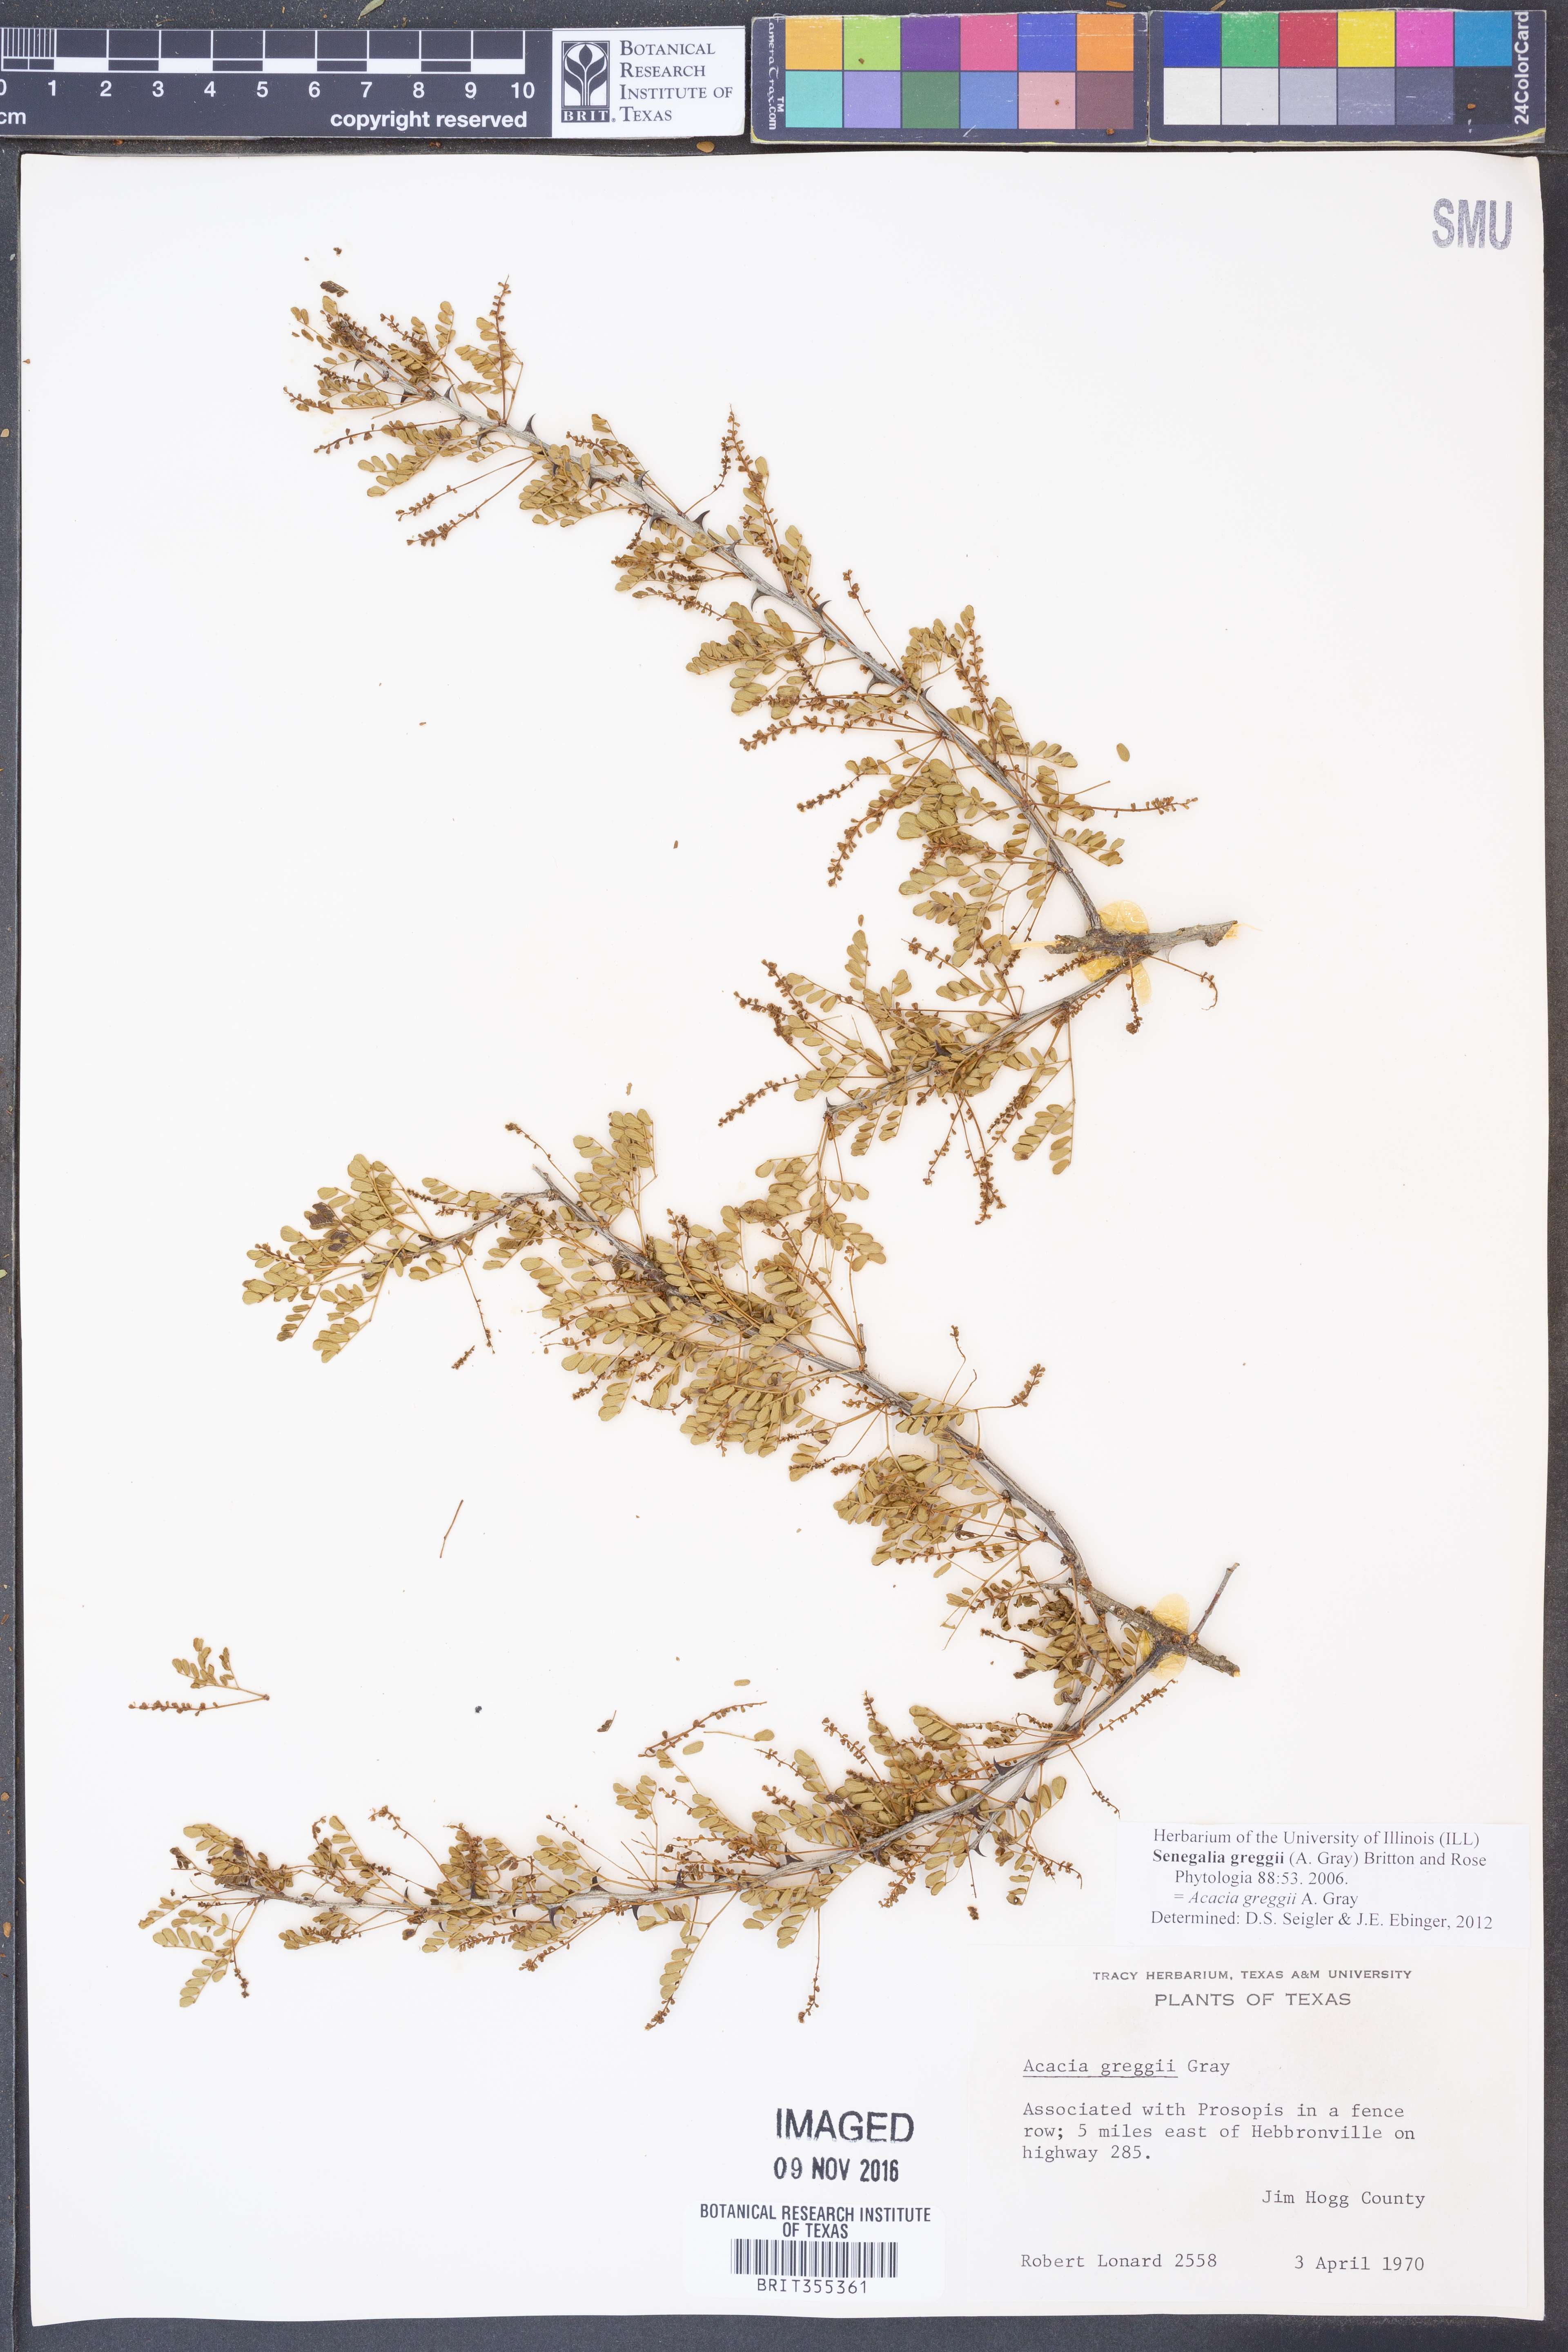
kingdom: Plantae
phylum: Tracheophyta
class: Magnoliopsida
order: Fabales
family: Fabaceae
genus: Senegalia
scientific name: Senegalia greggii
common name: Texas-mimosa
